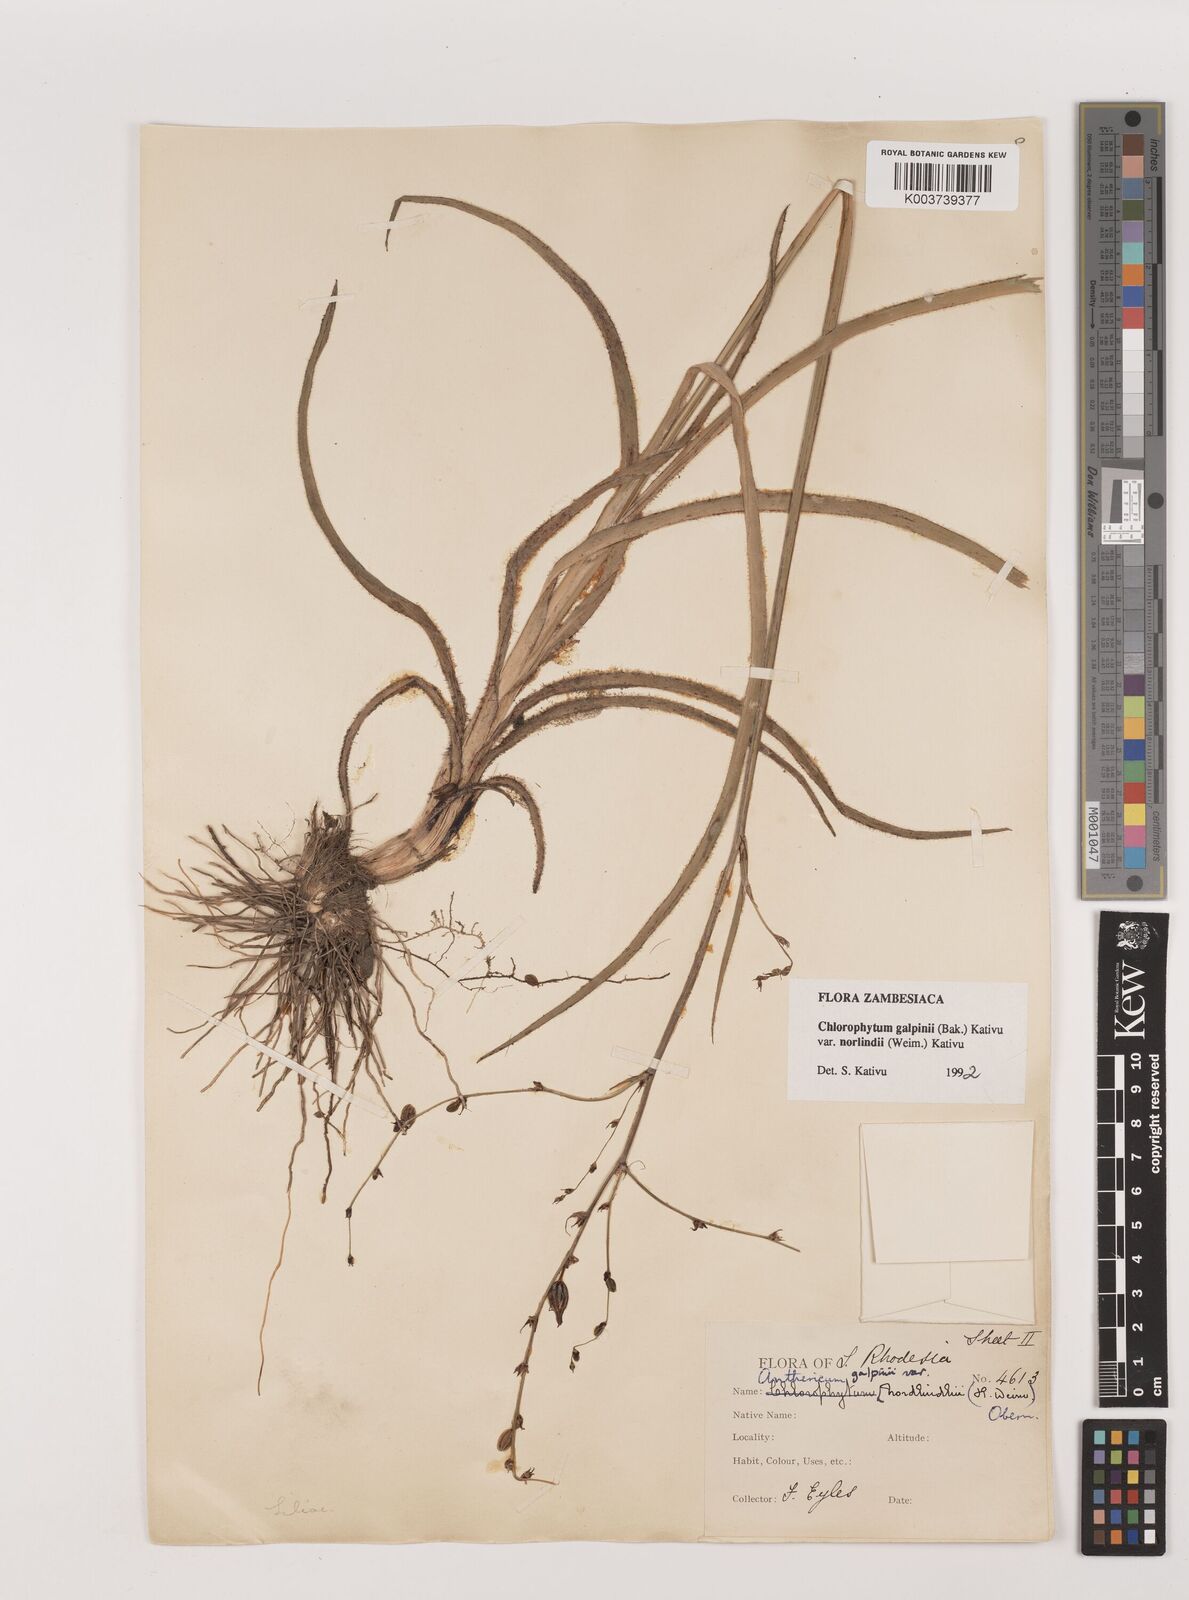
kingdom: Plantae
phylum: Tracheophyta
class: Liliopsida
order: Asparagales
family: Asparagaceae
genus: Chlorophytum
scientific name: Chlorophytum galpinii
